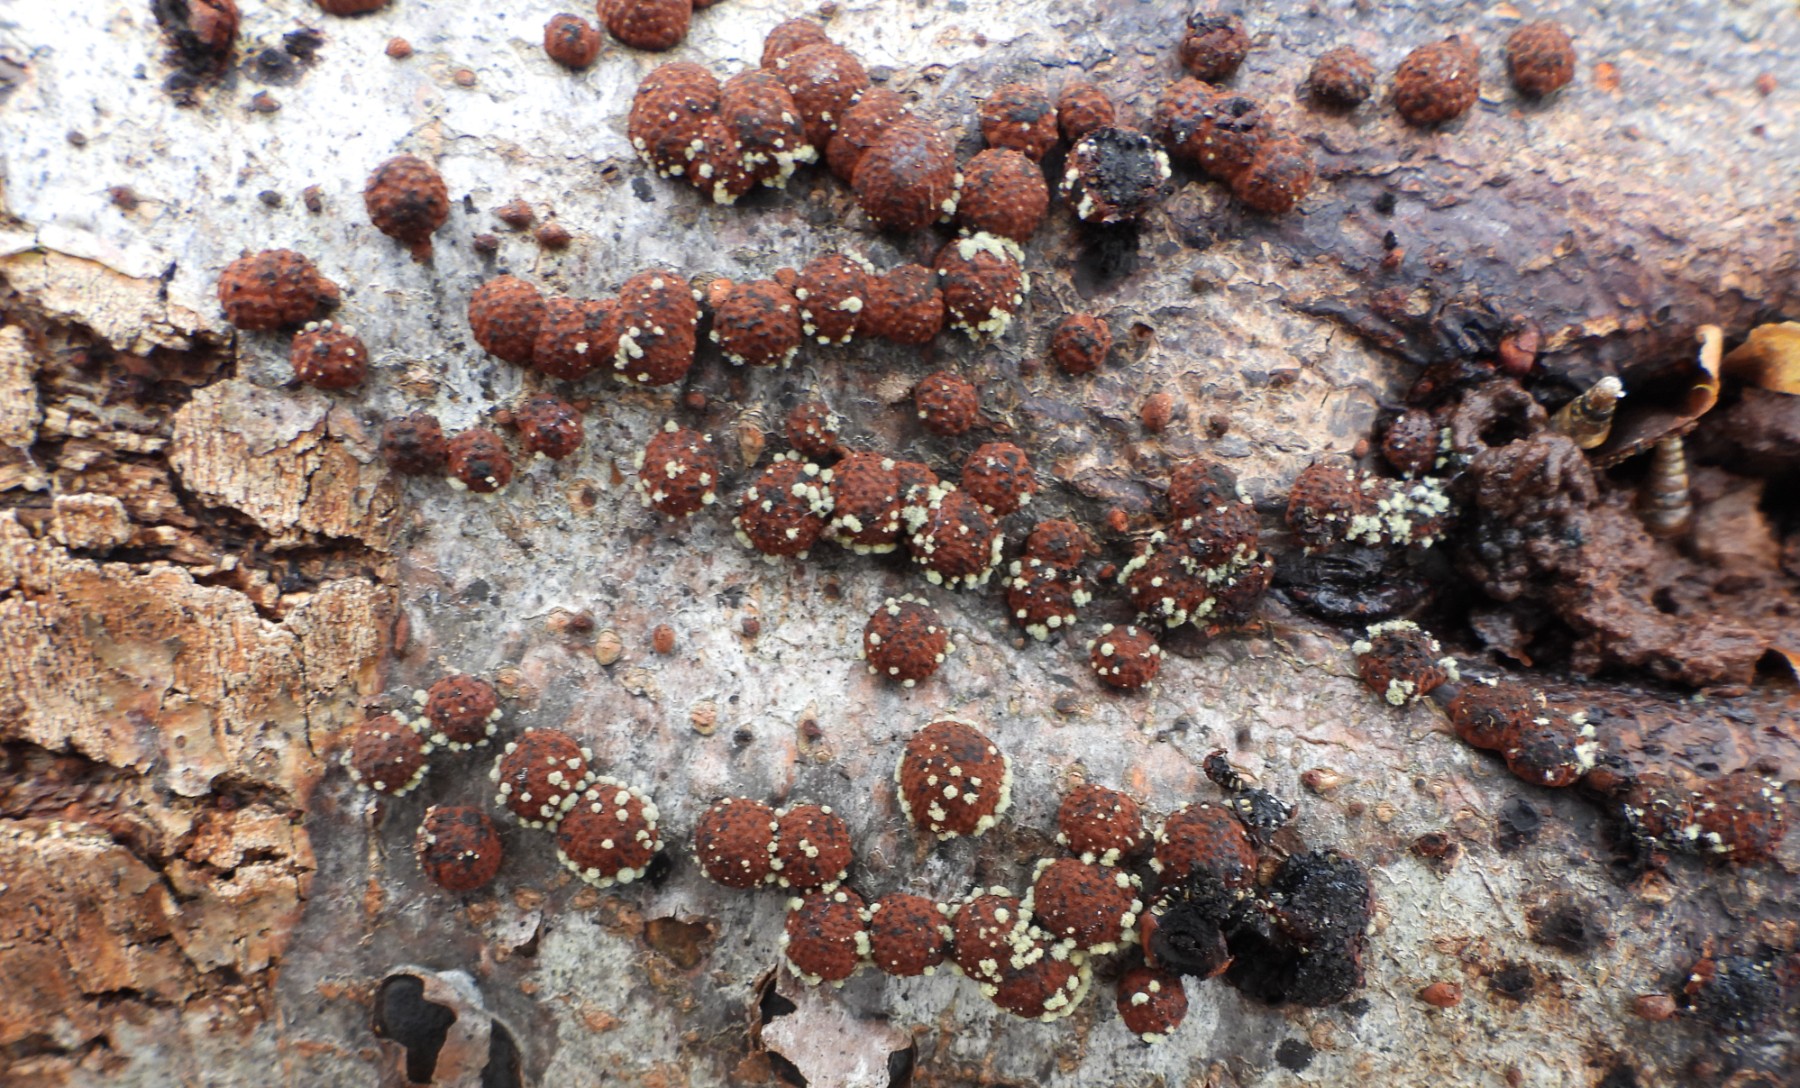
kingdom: Fungi
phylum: Ascomycota
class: Sordariomycetes
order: Xylariales
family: Hypoxylaceae
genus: Hypoxylon
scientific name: Hypoxylon fragiforme
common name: kuljordbær
